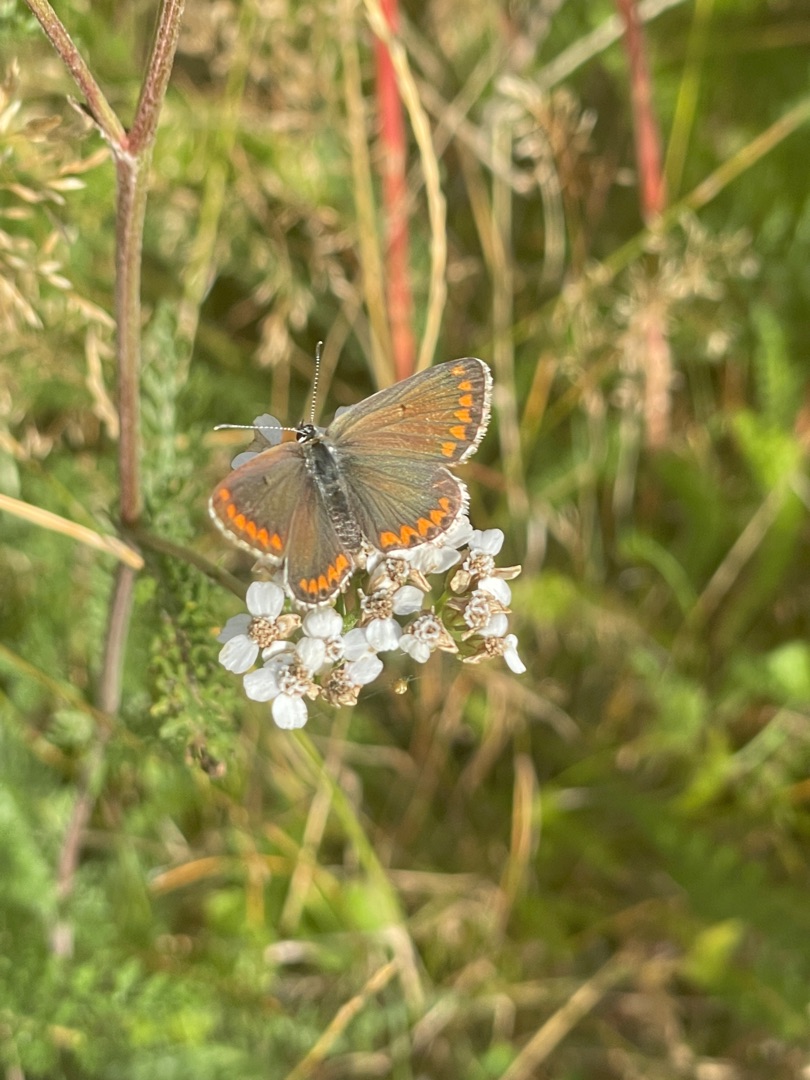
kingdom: Animalia
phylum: Arthropoda
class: Insecta
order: Lepidoptera
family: Lycaenidae
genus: Aricia
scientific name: Aricia agestis
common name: Rødplettet blåfugl
